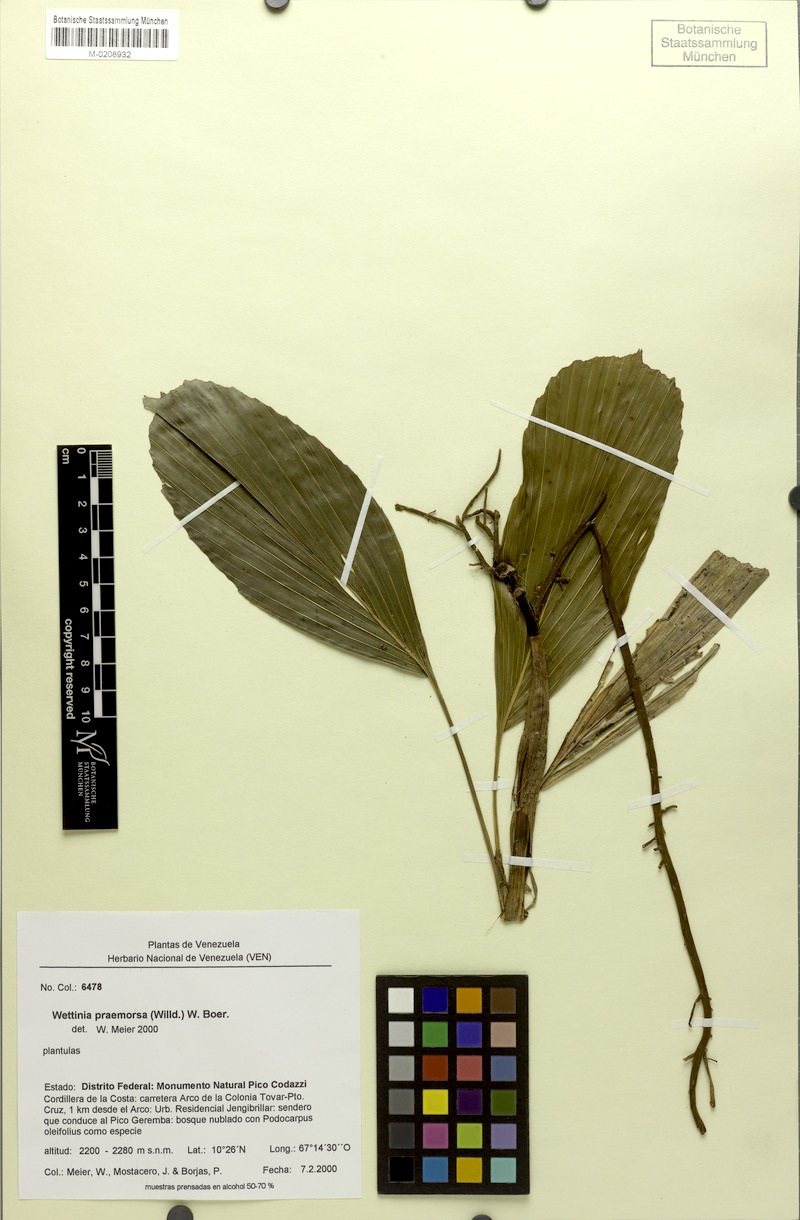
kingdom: Plantae
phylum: Tracheophyta
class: Liliopsida
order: Arecales
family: Arecaceae
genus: Wettinia
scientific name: Wettinia praemorsa
